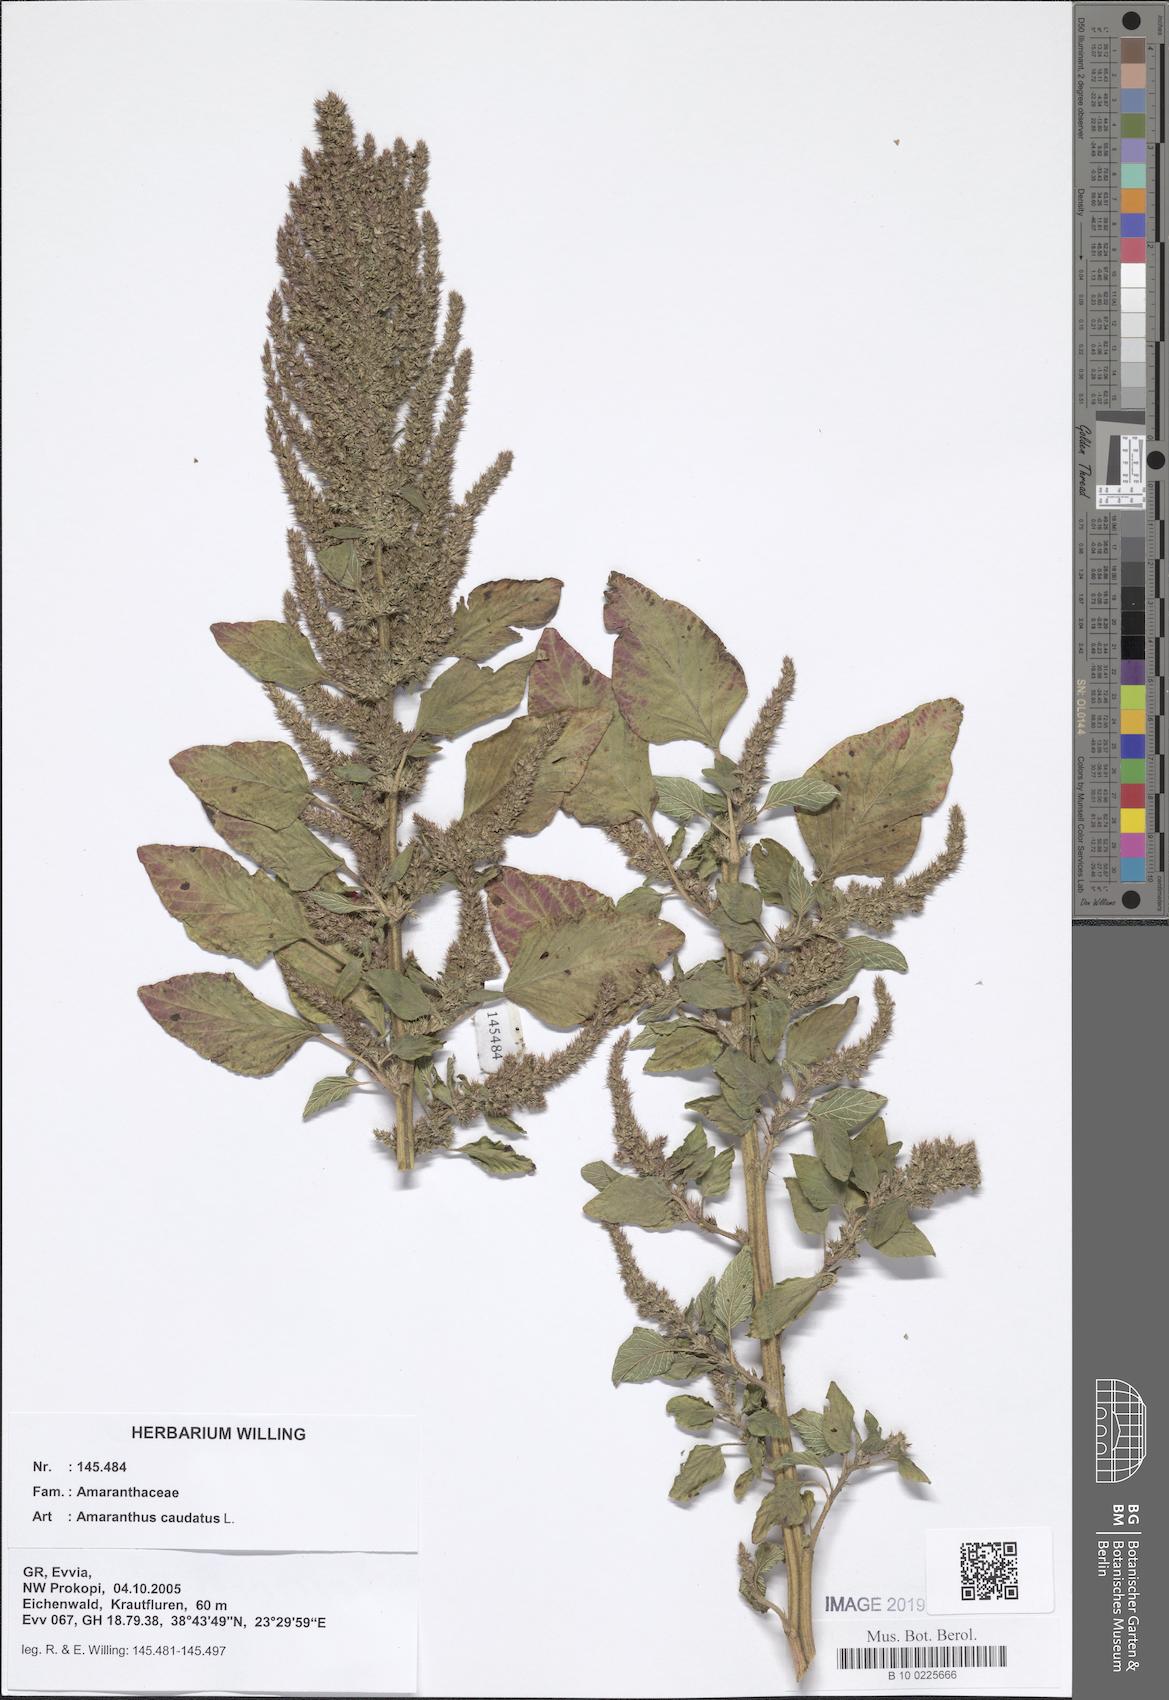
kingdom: Plantae
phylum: Tracheophyta
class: Magnoliopsida
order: Caryophyllales
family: Amaranthaceae
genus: Amaranthus
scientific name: Amaranthus caudatus
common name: Love-lies-bleeding
